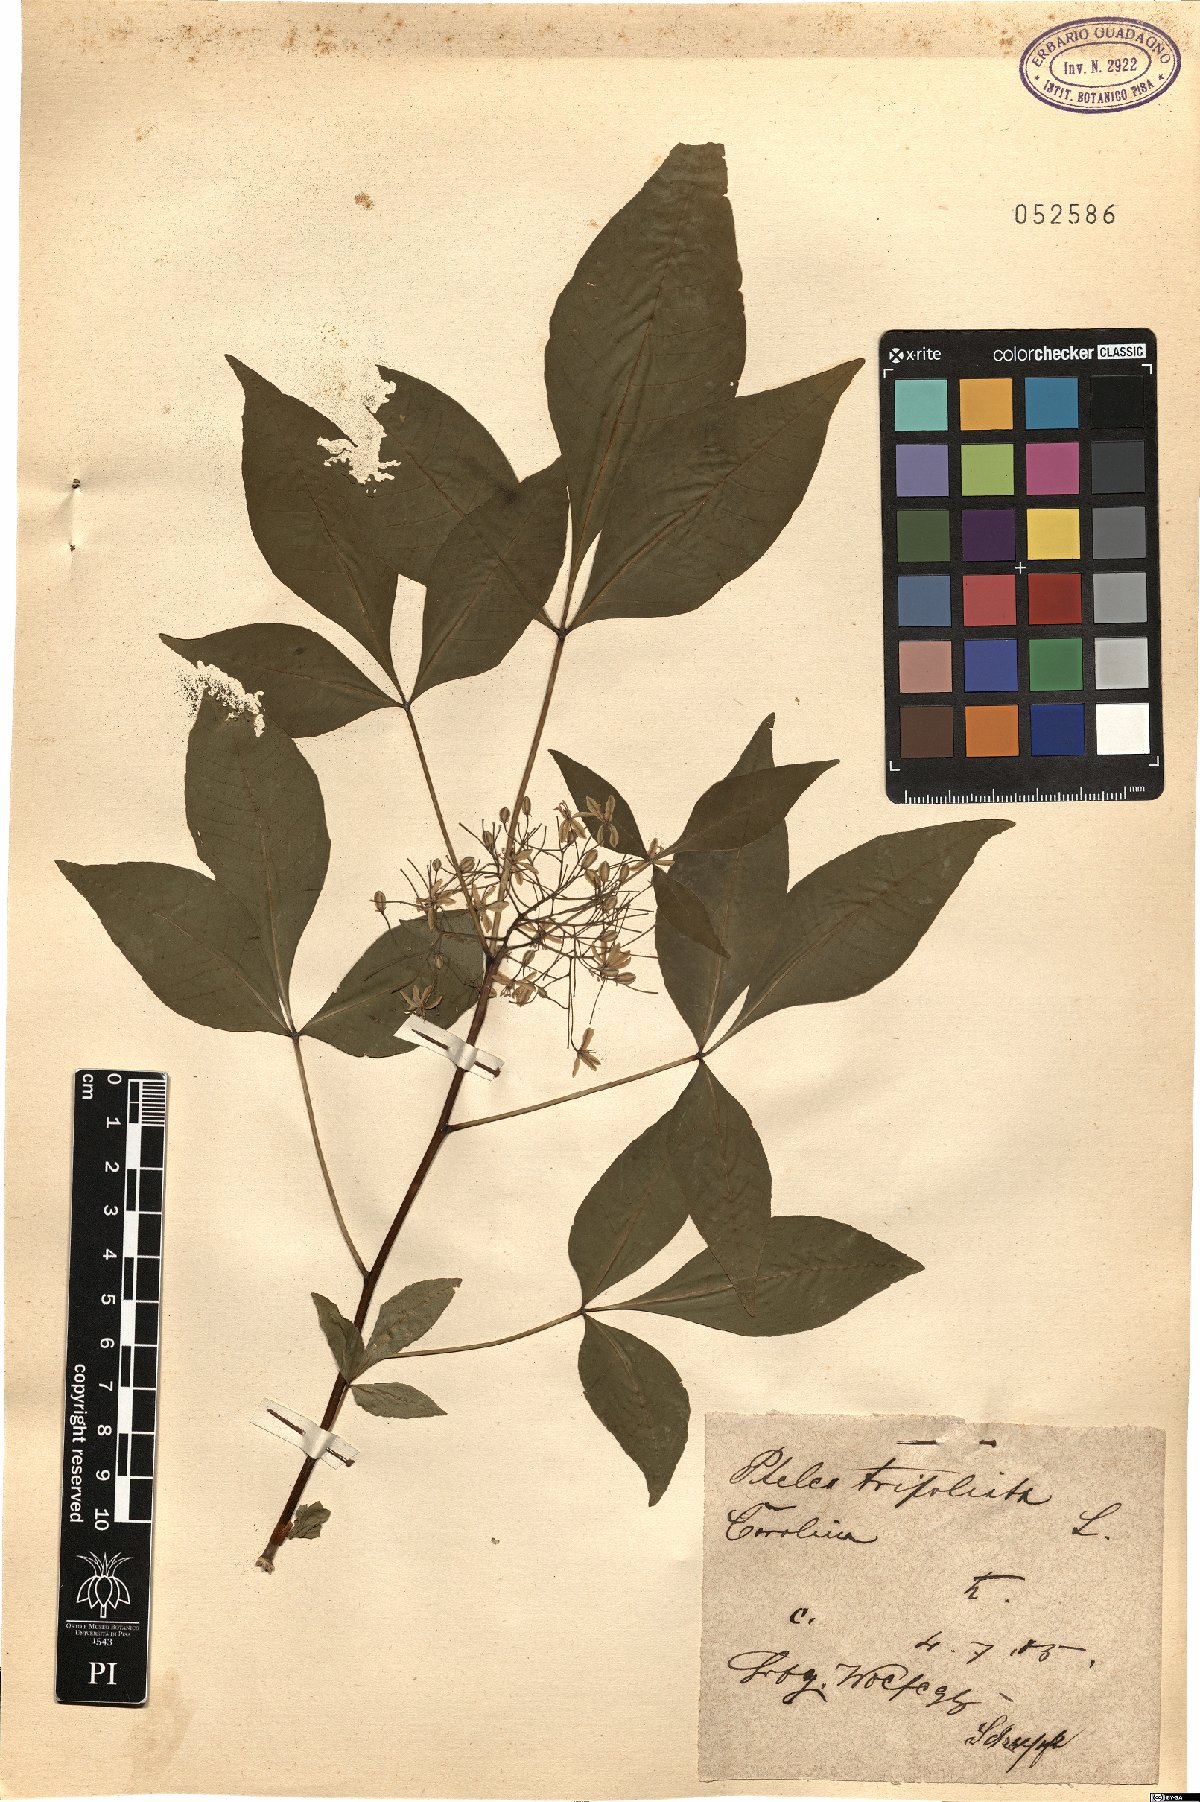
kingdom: Plantae
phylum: Tracheophyta
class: Magnoliopsida
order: Sapindales
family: Rutaceae
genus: Ptelea
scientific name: Ptelea trifoliata
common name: Common hop-tree
